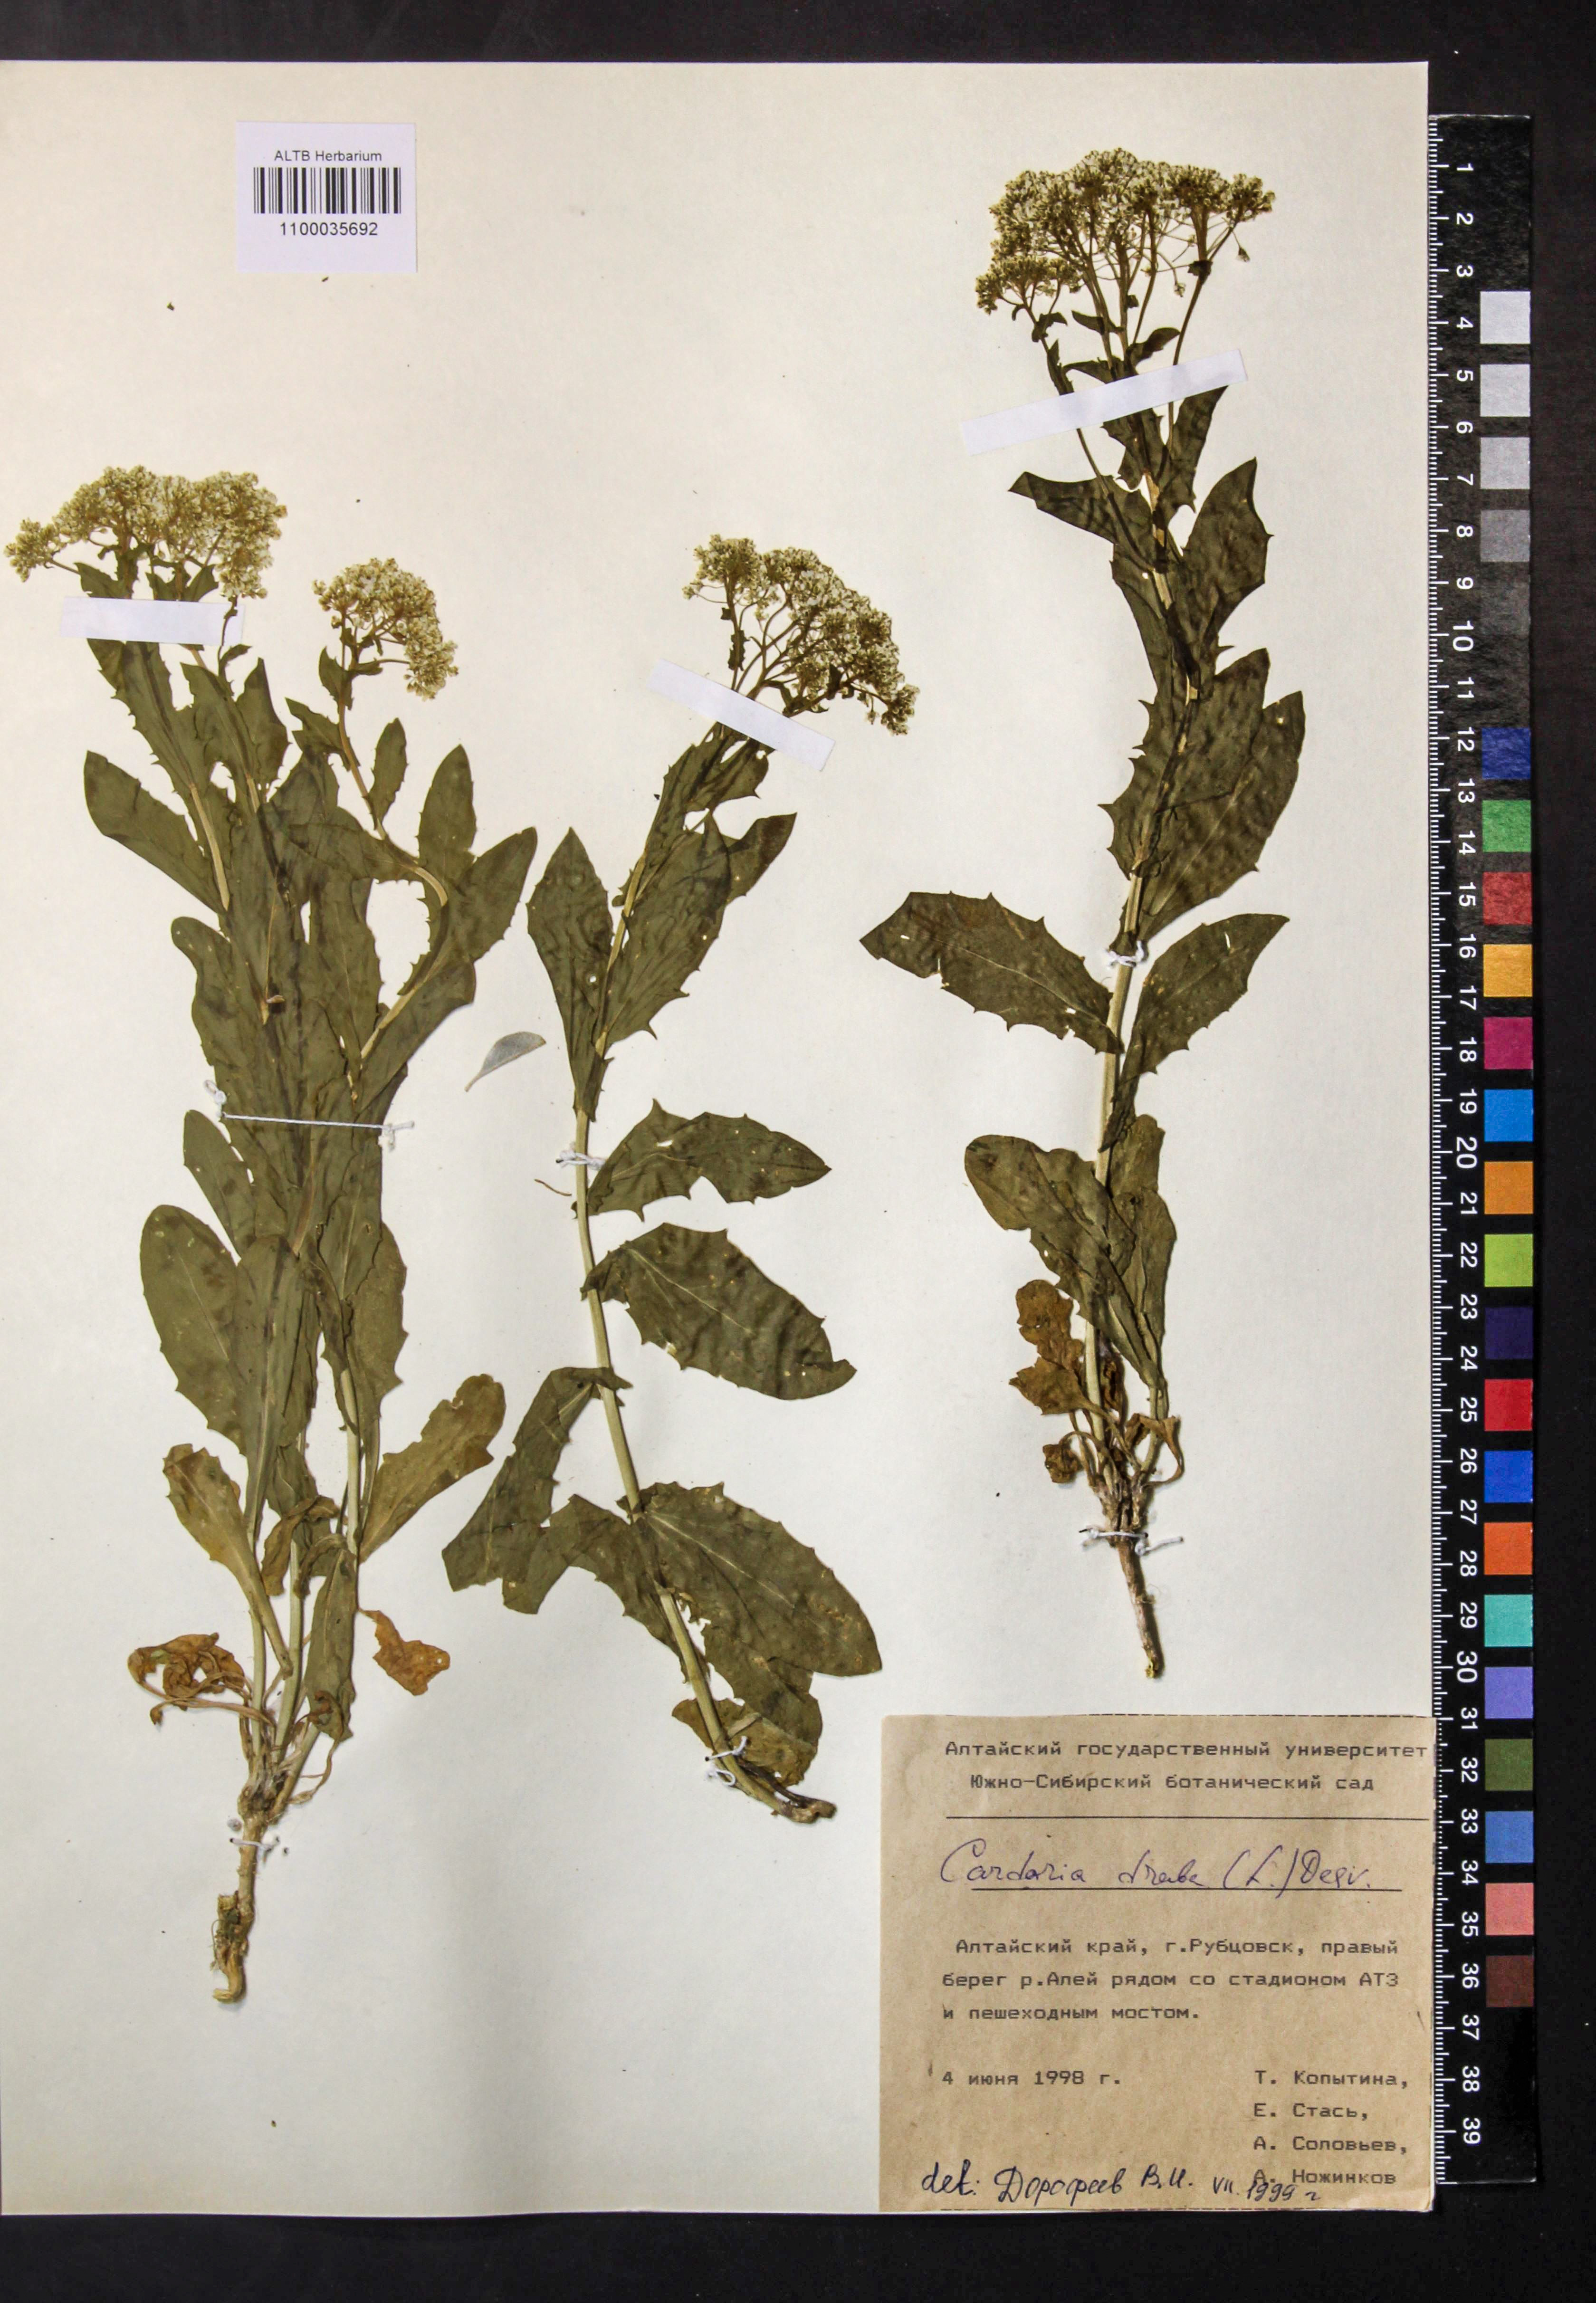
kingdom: Plantae
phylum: Tracheophyta
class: Magnoliopsida
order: Brassicales
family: Brassicaceae
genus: Lepidium
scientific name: Lepidium draba
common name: Hoary cress
